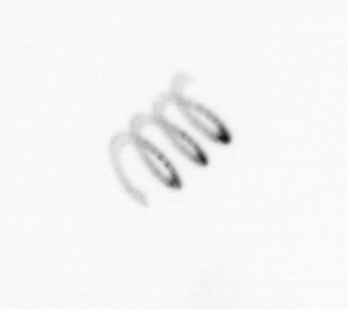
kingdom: Chromista
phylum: Ochrophyta
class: Bacillariophyceae
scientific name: Bacillariophyceae
